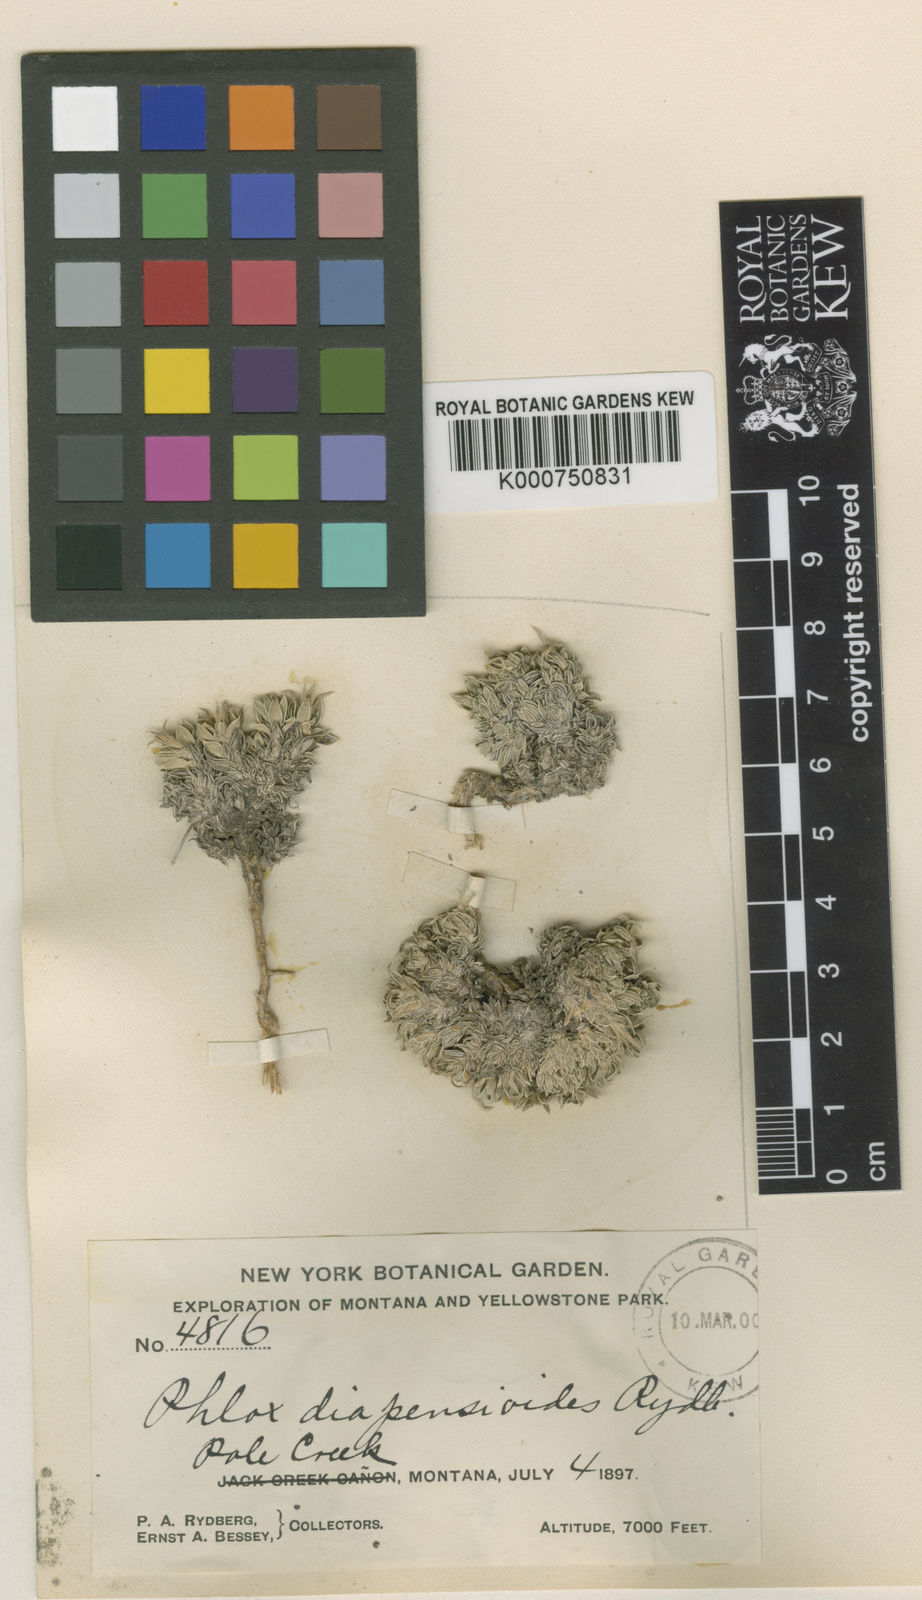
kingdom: Plantae
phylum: Tracheophyta
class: Magnoliopsida
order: Ericales
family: Polemoniaceae
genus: Phlox
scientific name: Phlox kelseyi
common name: Marsh phlox
